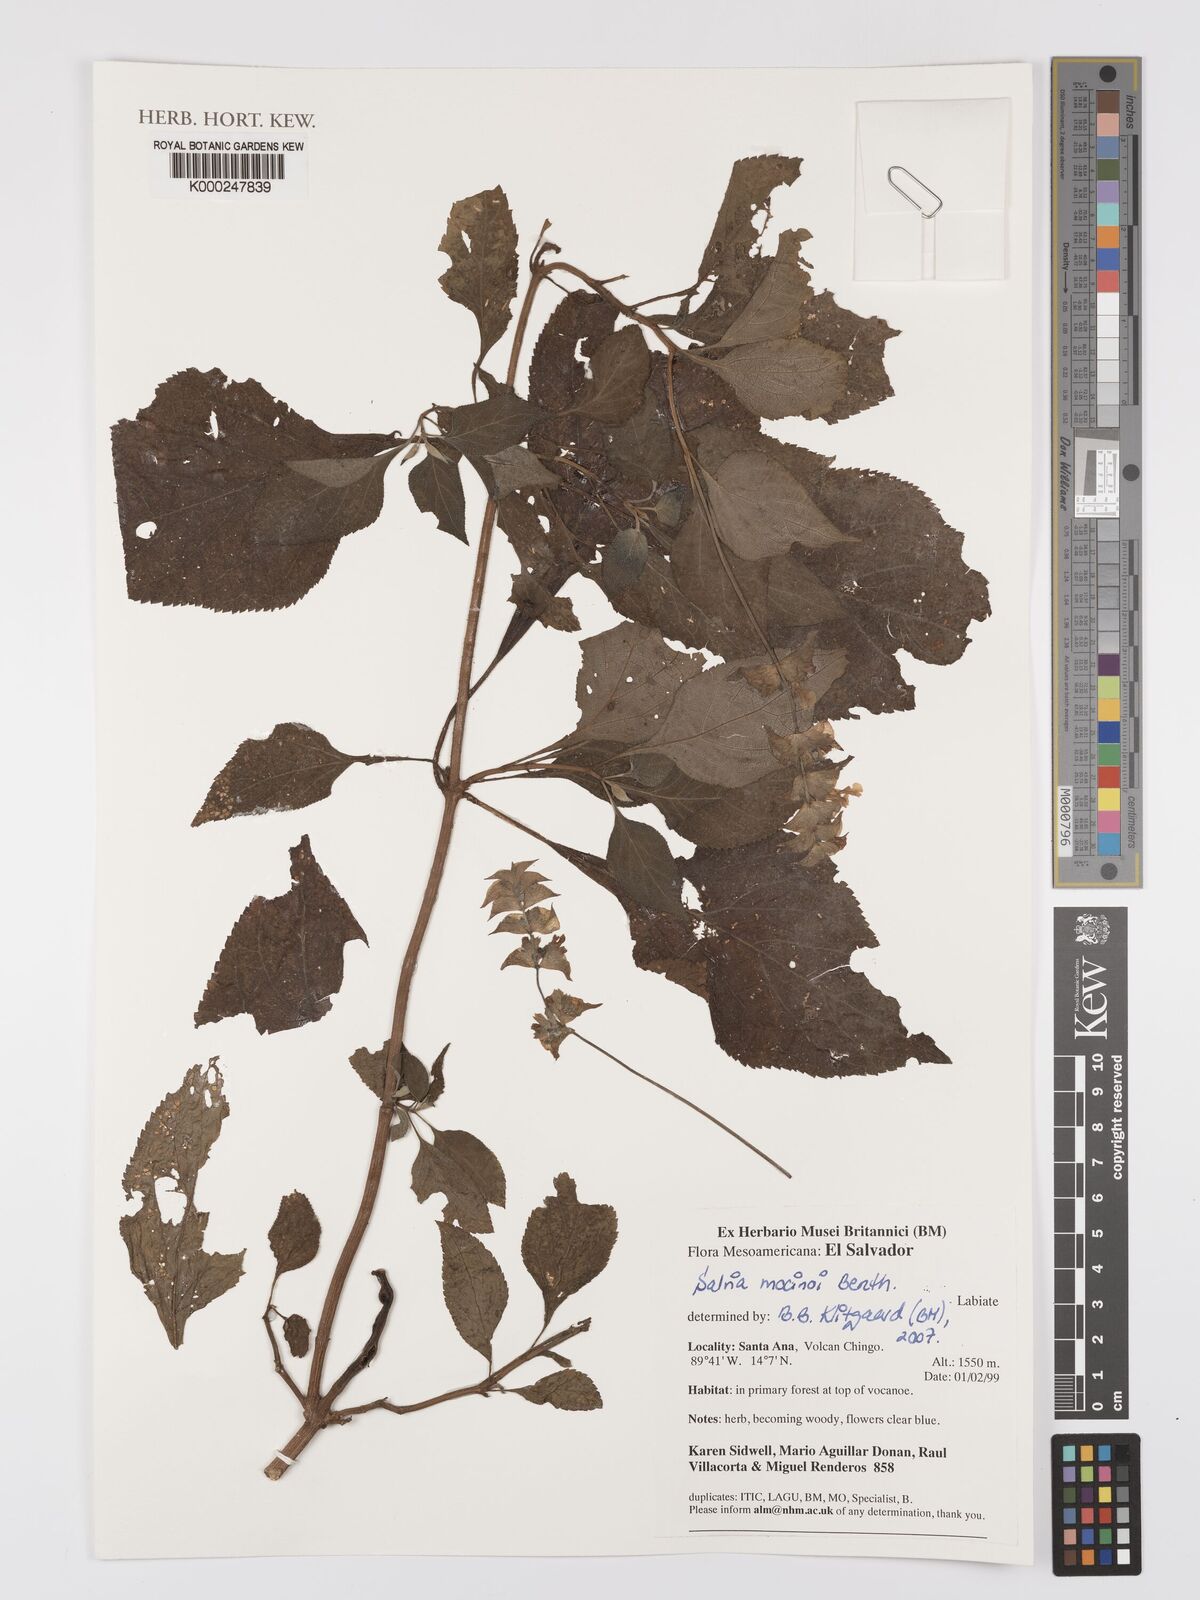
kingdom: Plantae
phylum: Tracheophyta
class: Magnoliopsida
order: Lamiales
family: Lamiaceae
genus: Salvia
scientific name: Salvia mocinoi
